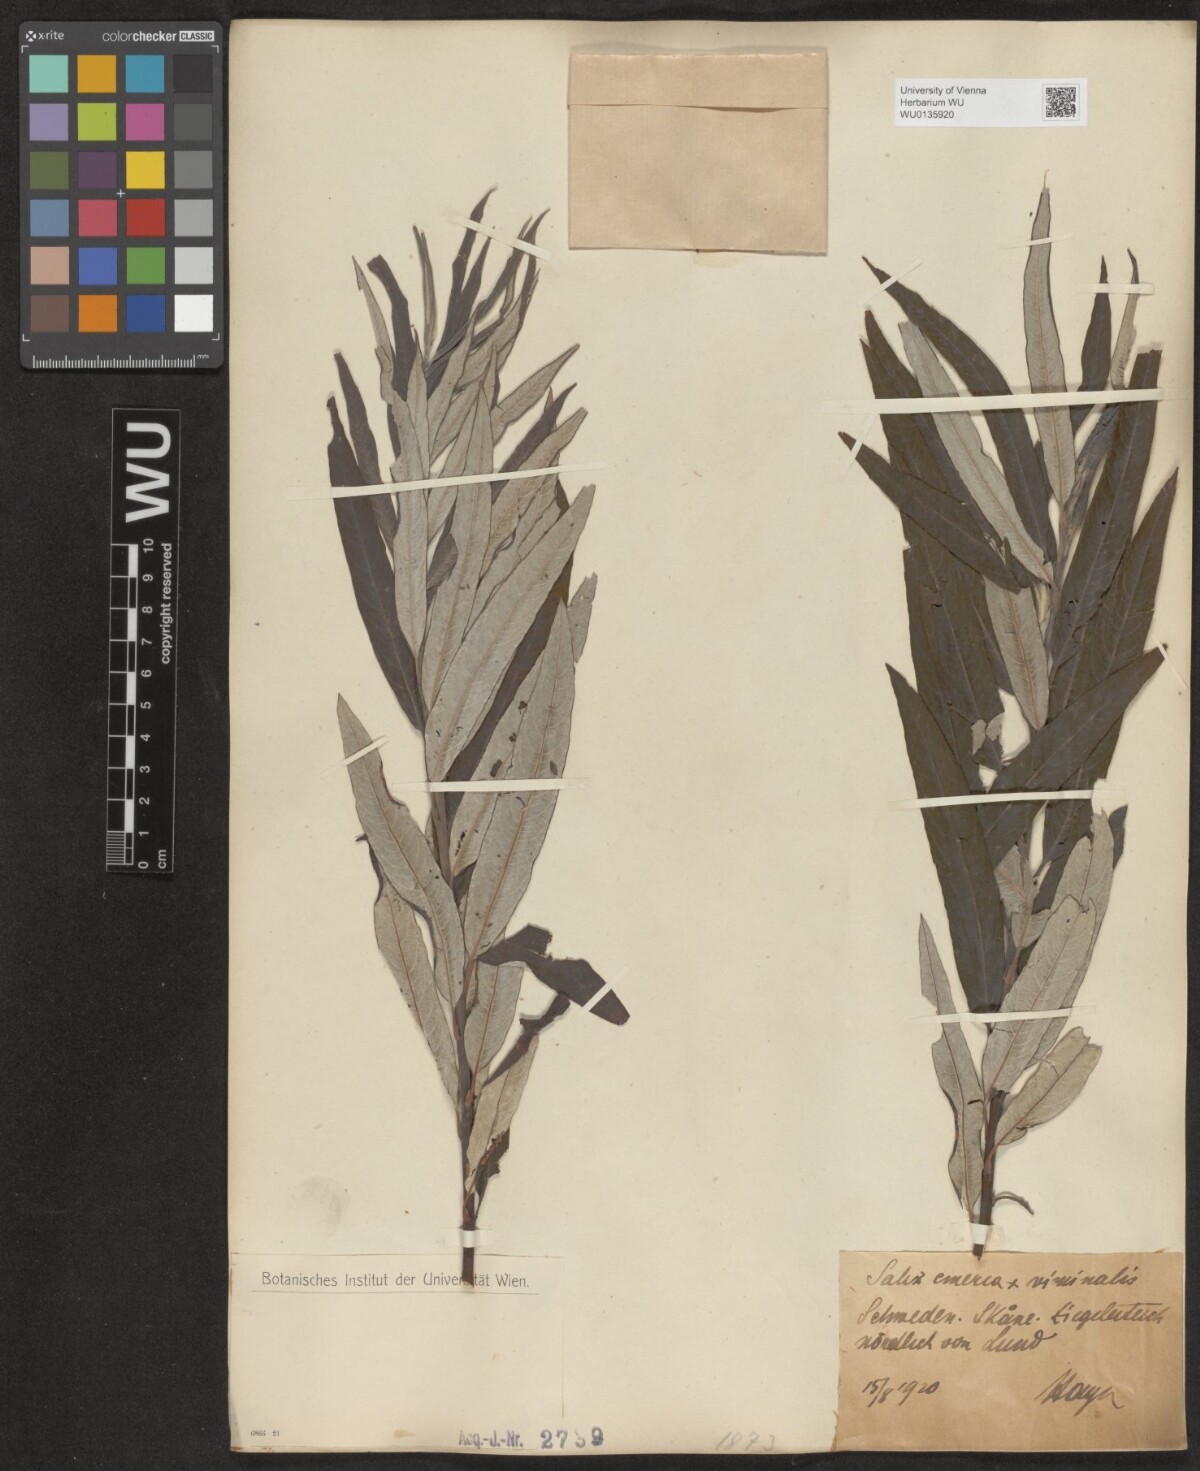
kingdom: Plantae
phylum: Tracheophyta
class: Magnoliopsida
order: Malpighiales
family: Salicaceae
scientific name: Salicaceae
